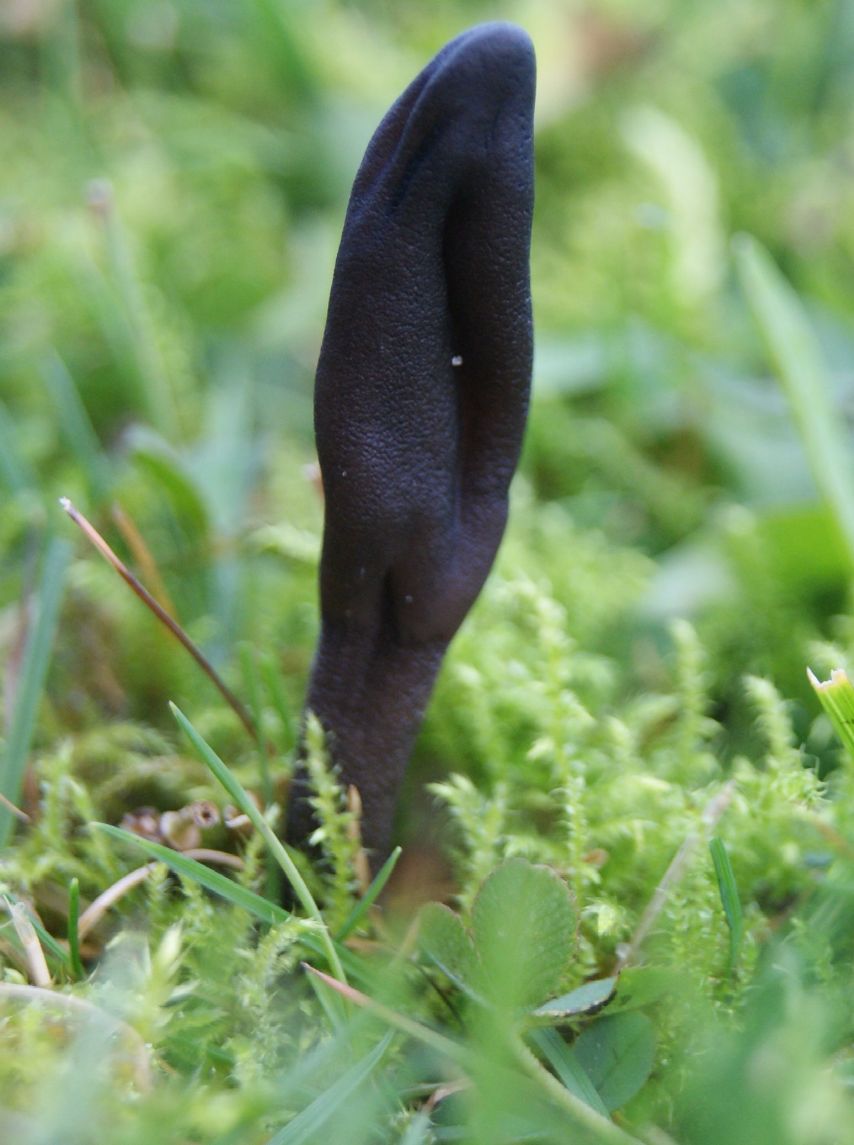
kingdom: Fungi
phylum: Ascomycota
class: Geoglossomycetes
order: Geoglossales
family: Geoglossaceae
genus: Geoglossum
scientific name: Geoglossum fallax
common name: småskællet jordtunge
